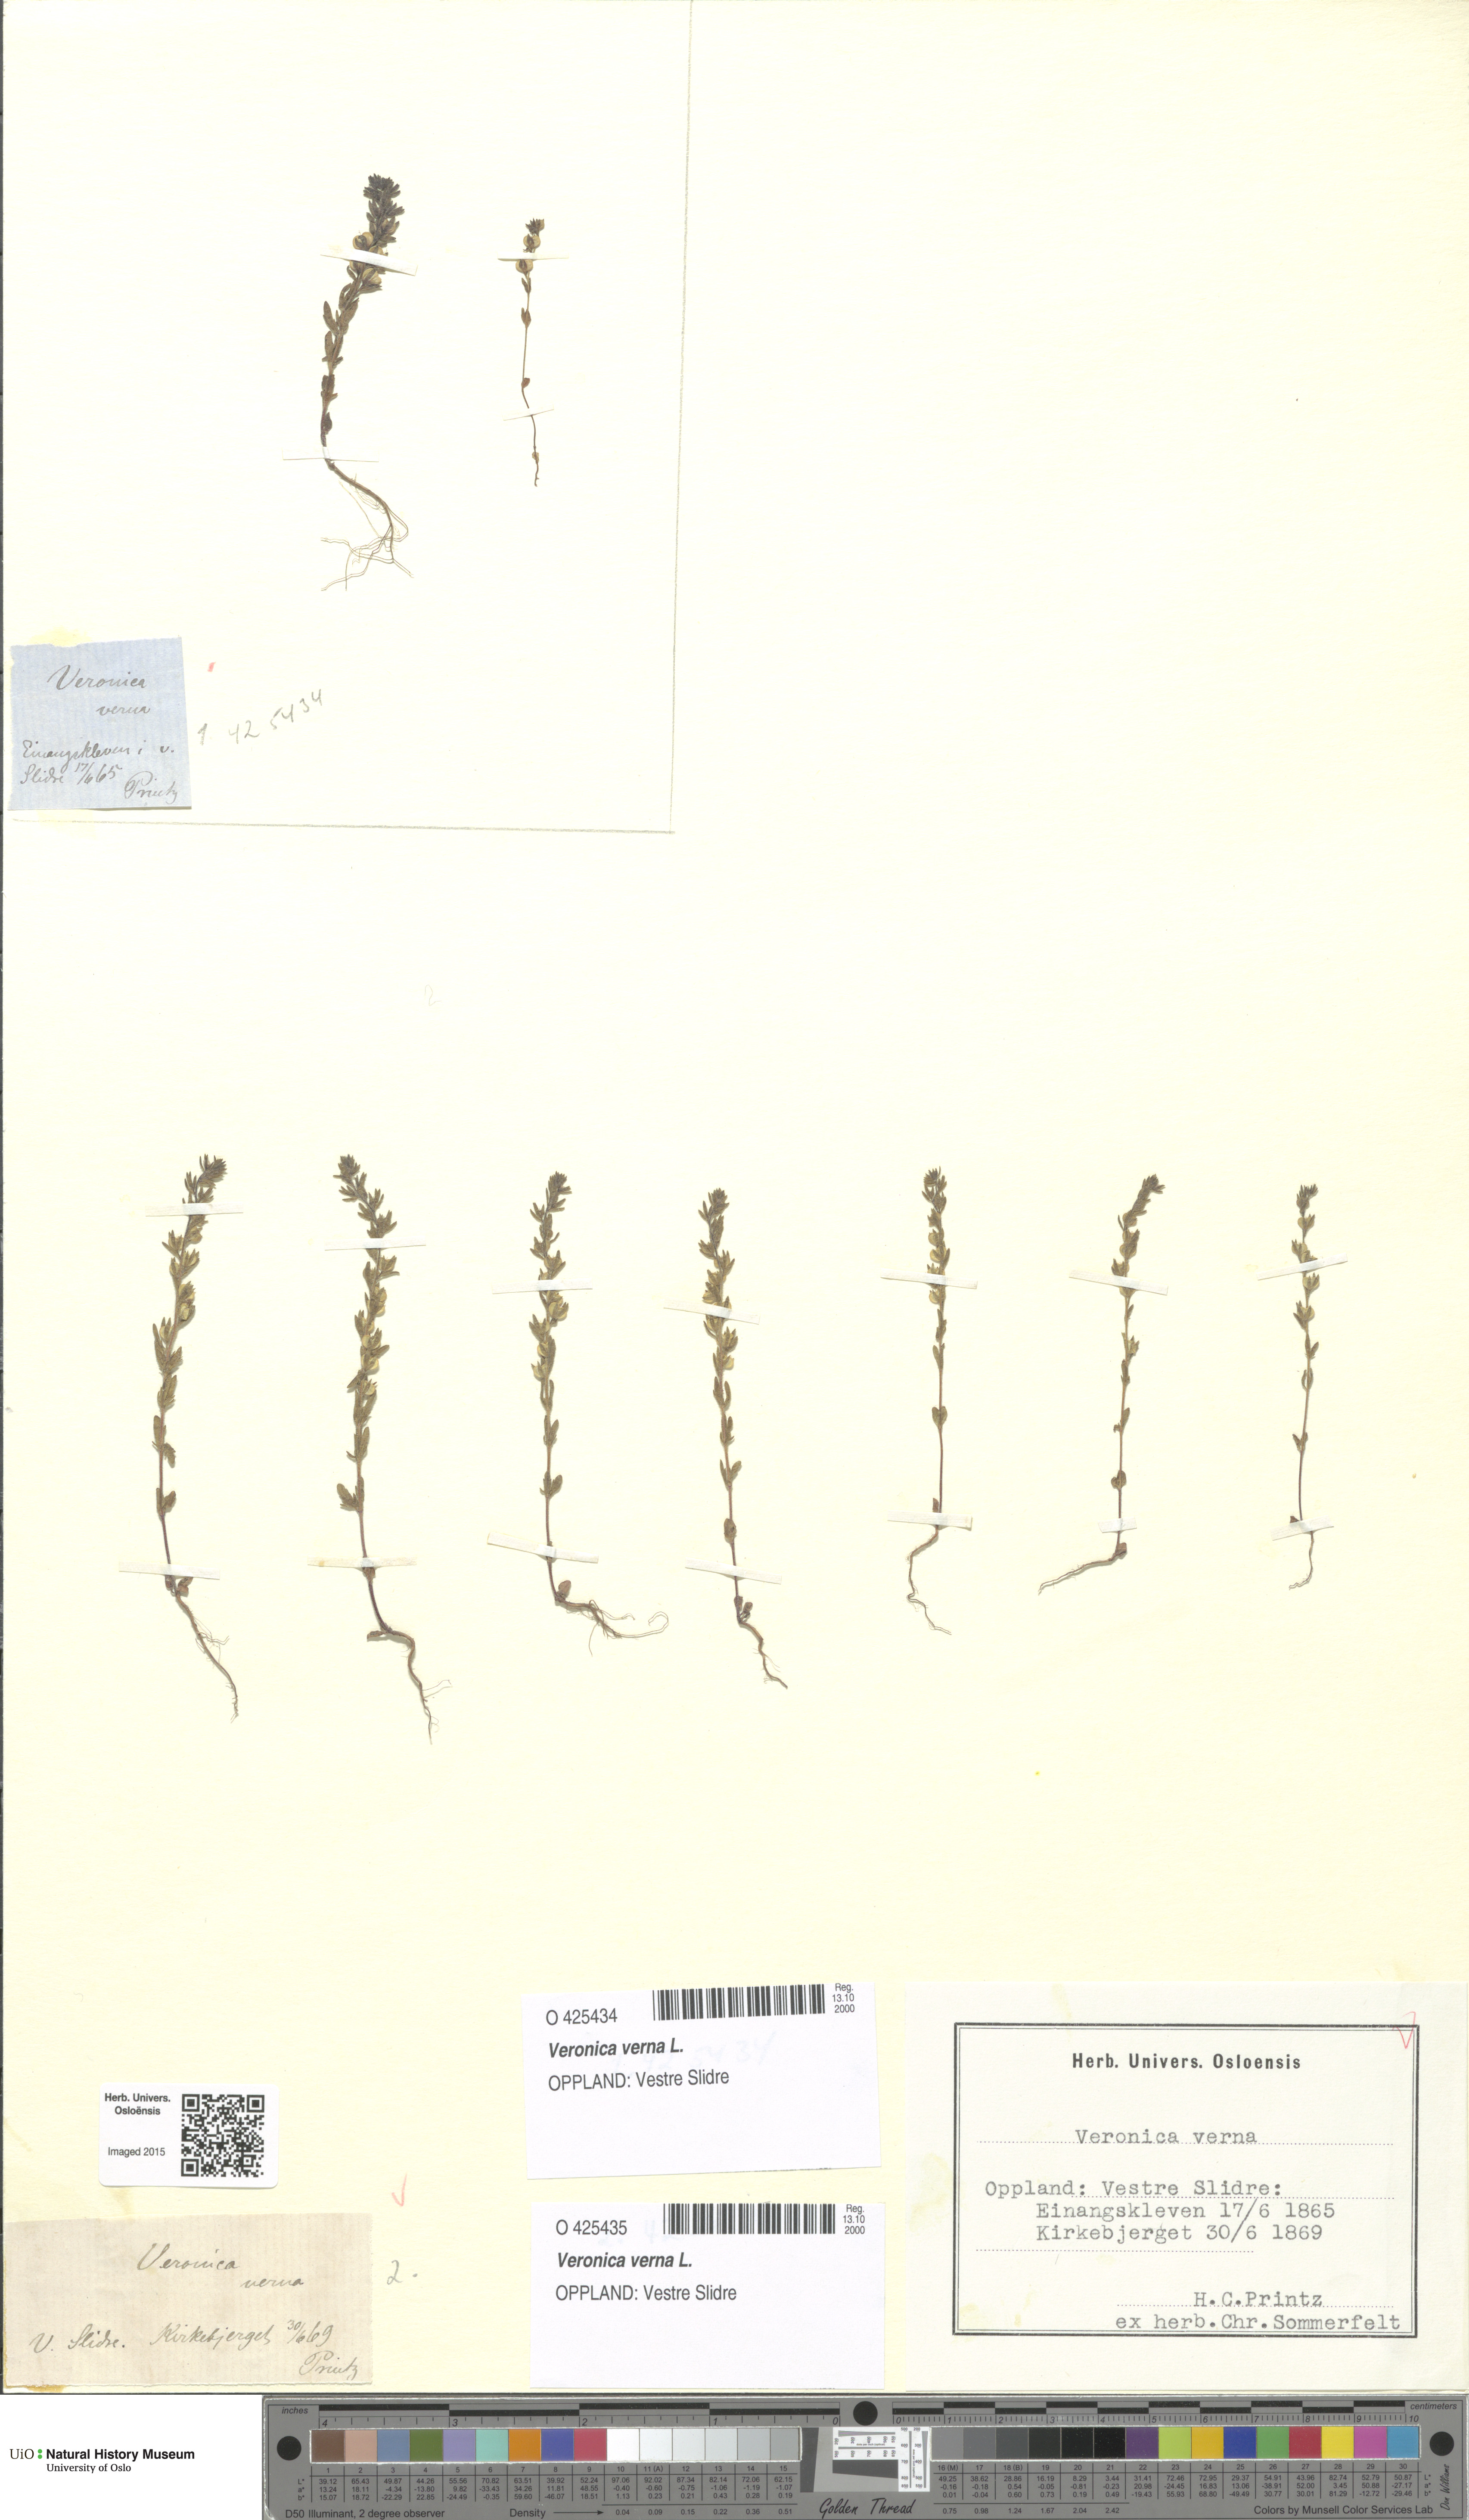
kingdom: Plantae
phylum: Tracheophyta
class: Magnoliopsida
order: Lamiales
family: Plantaginaceae
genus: Veronica
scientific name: Veronica verna
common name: Spring speedwell
